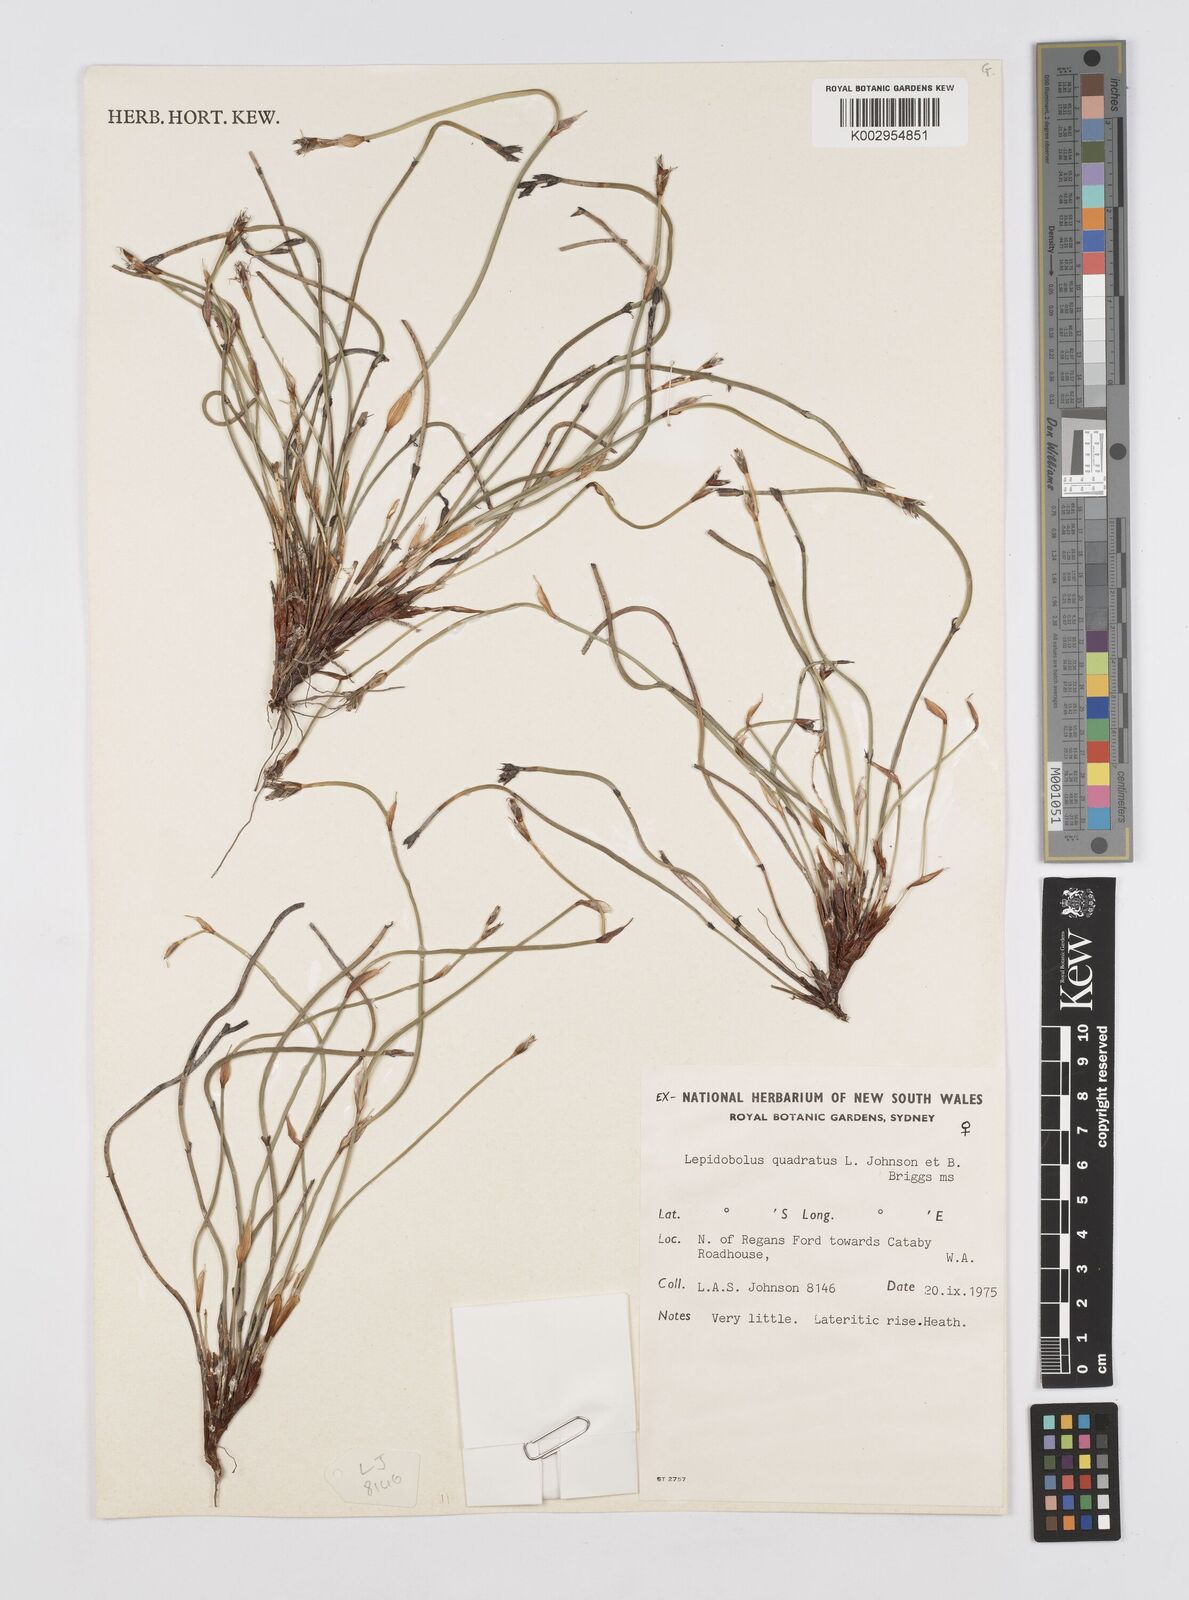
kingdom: Plantae
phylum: Tracheophyta
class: Liliopsida
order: Poales
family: Restionaceae
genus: Lepidobolus
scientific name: Lepidobolus quadratus
